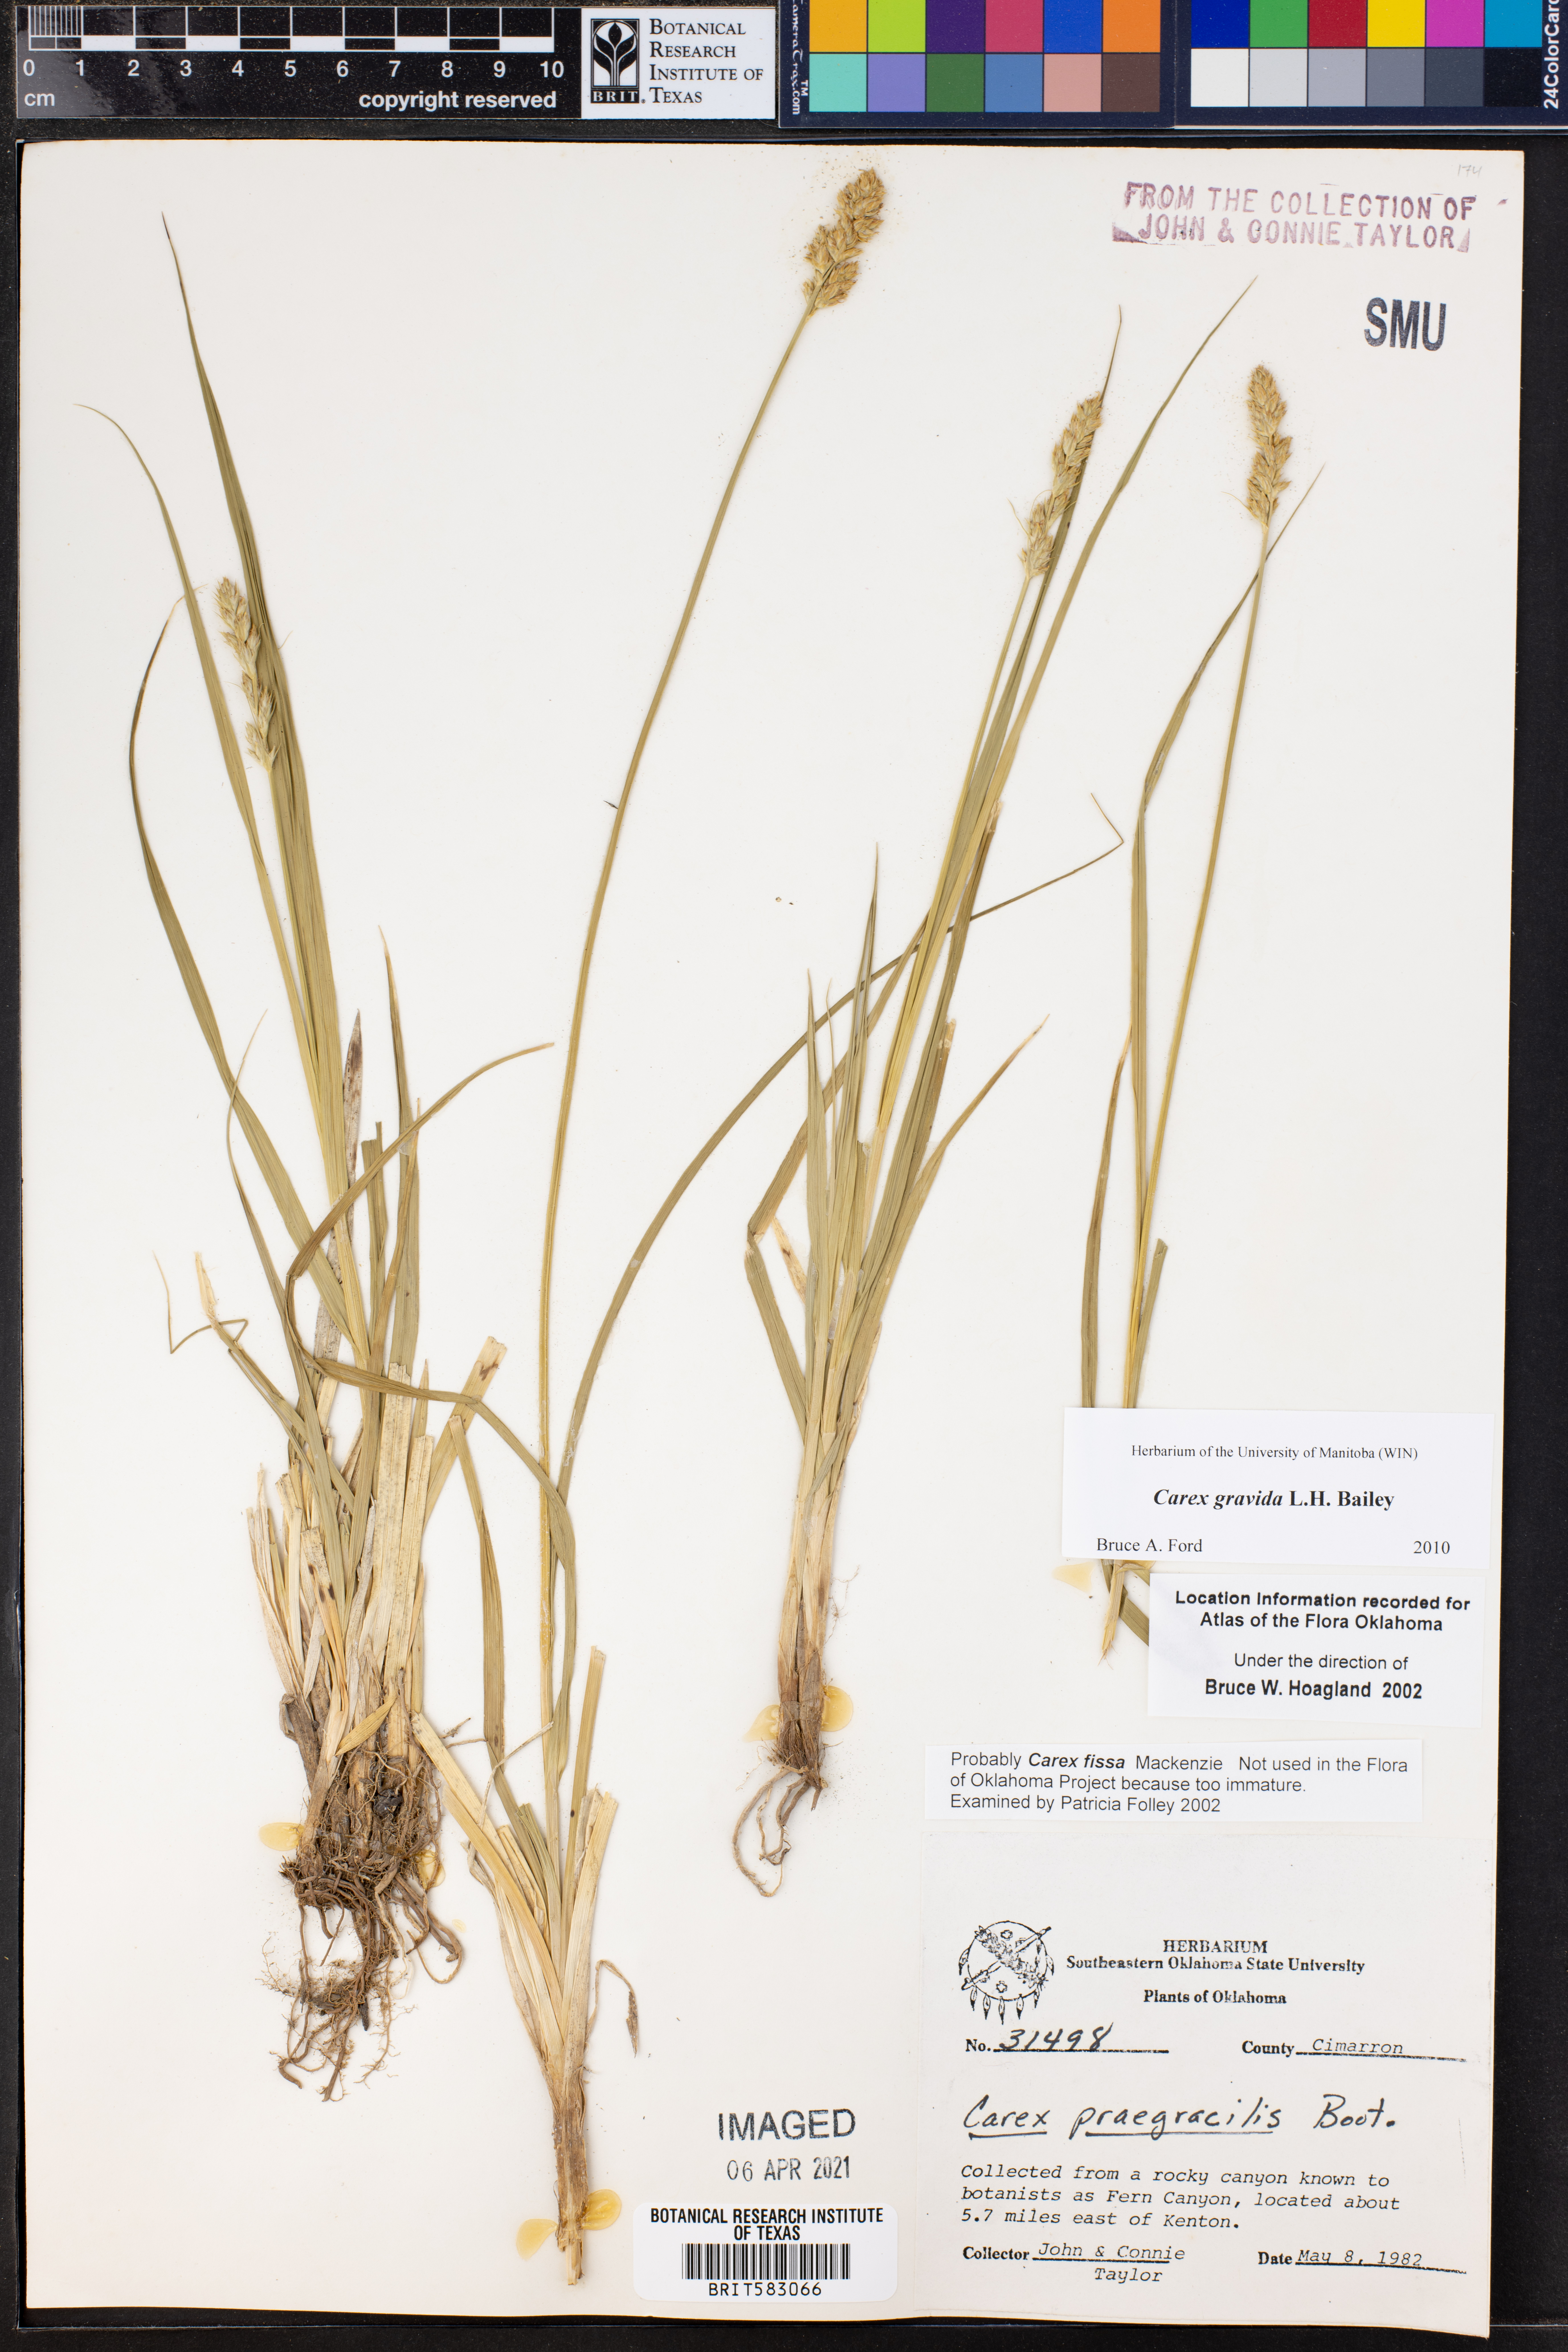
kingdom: Plantae
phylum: Tracheophyta
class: Liliopsida
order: Poales
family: Cyperaceae
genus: Carex
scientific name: Carex gravida
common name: Heavy sedge
